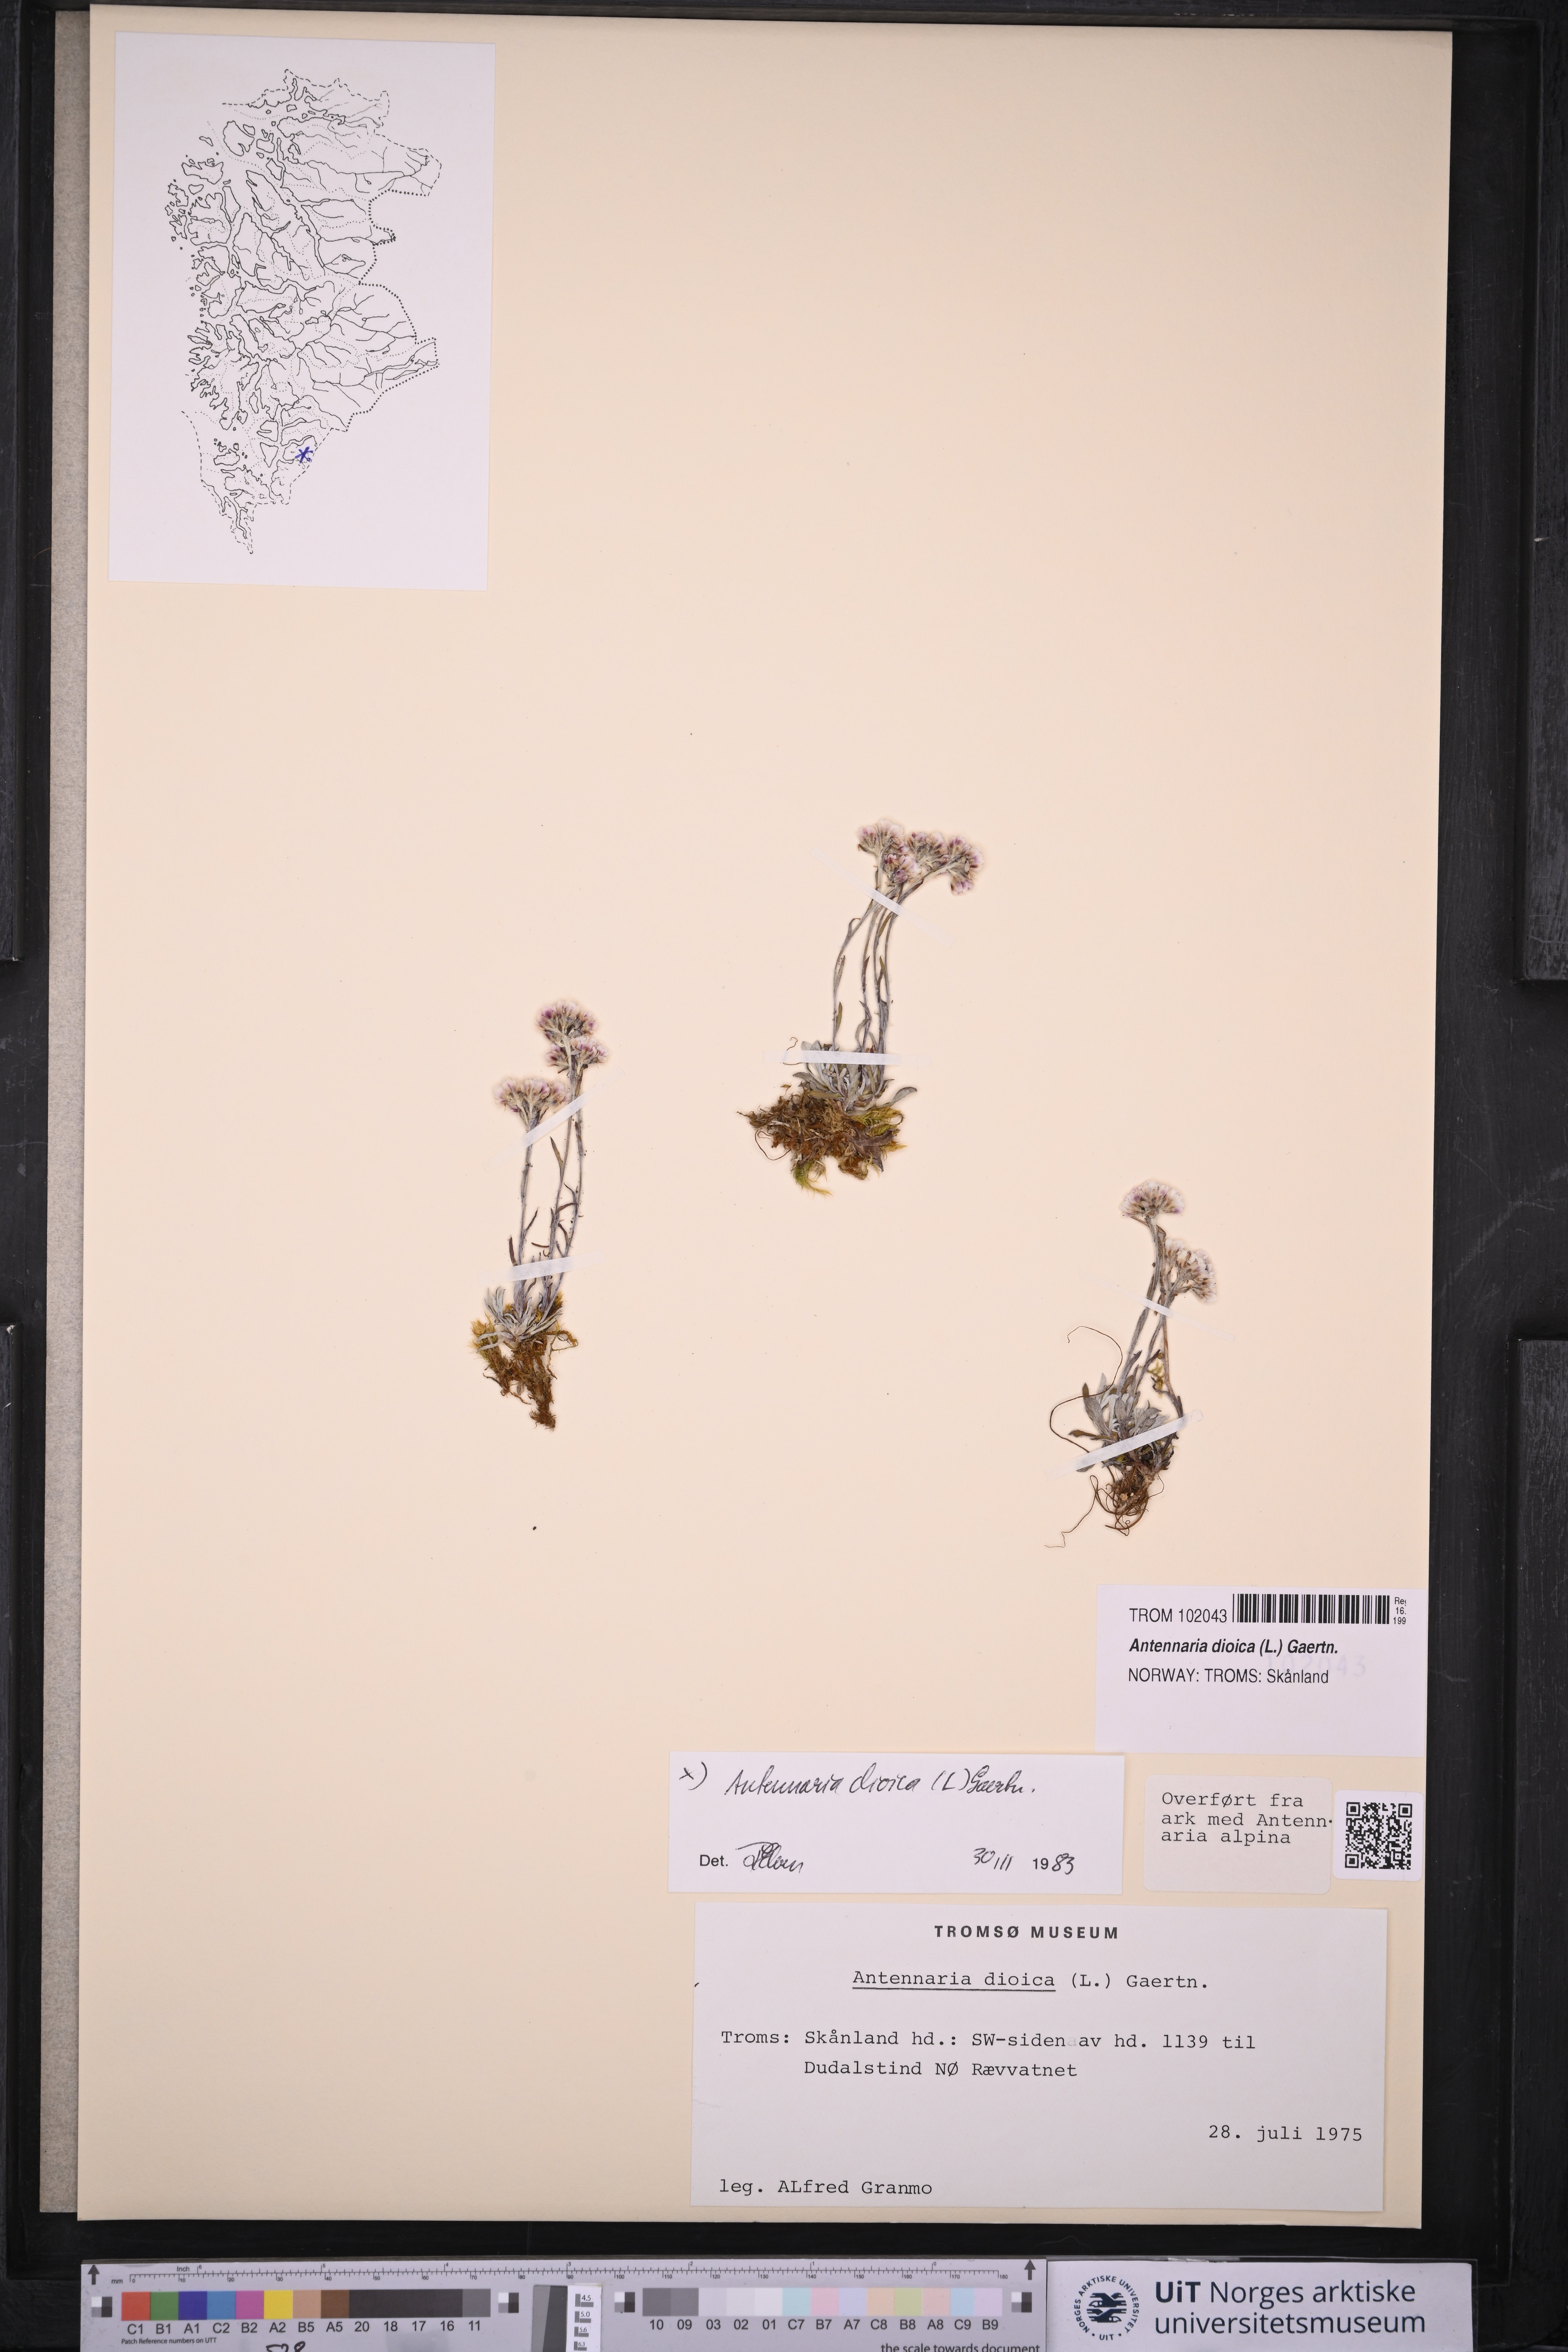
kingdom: Plantae
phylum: Tracheophyta
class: Magnoliopsida
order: Asterales
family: Asteraceae
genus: Antennaria
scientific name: Antennaria dioica
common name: Mountain everlasting
